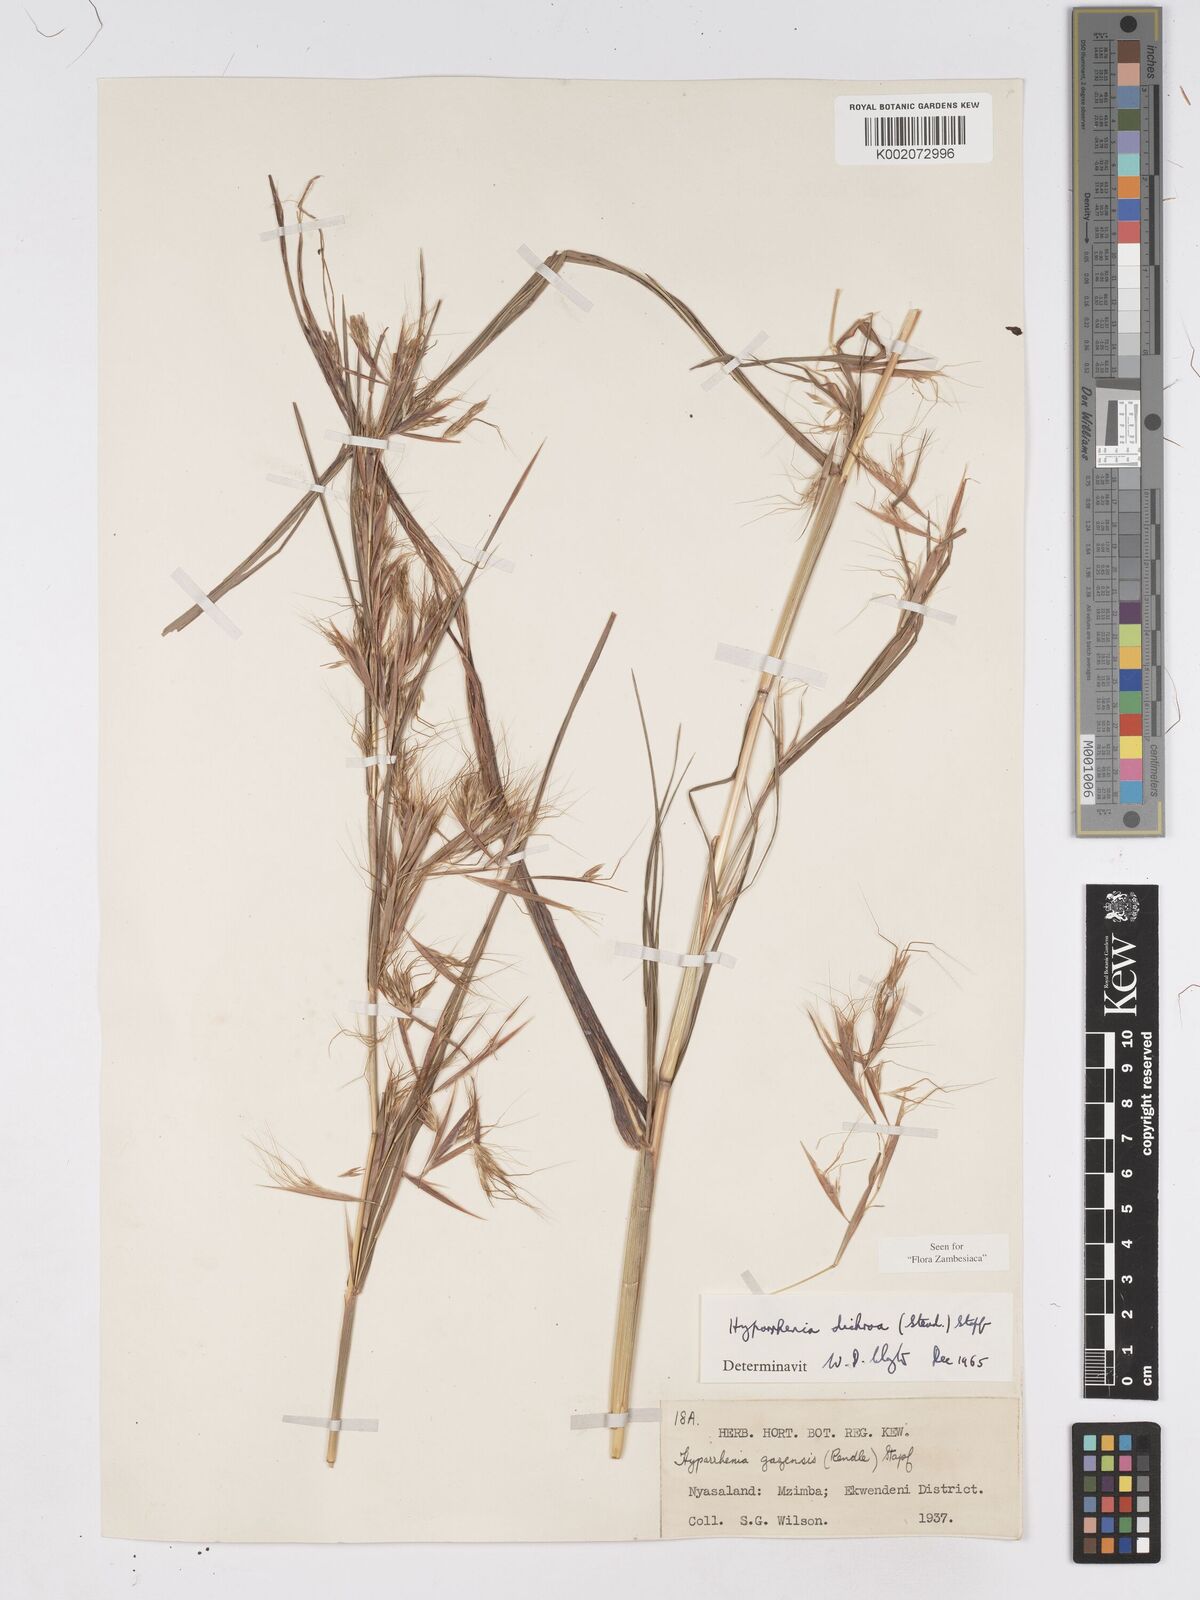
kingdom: Plantae
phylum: Tracheophyta
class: Liliopsida
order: Poales
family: Poaceae
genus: Hyparrhenia
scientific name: Hyparrhenia dichroa
